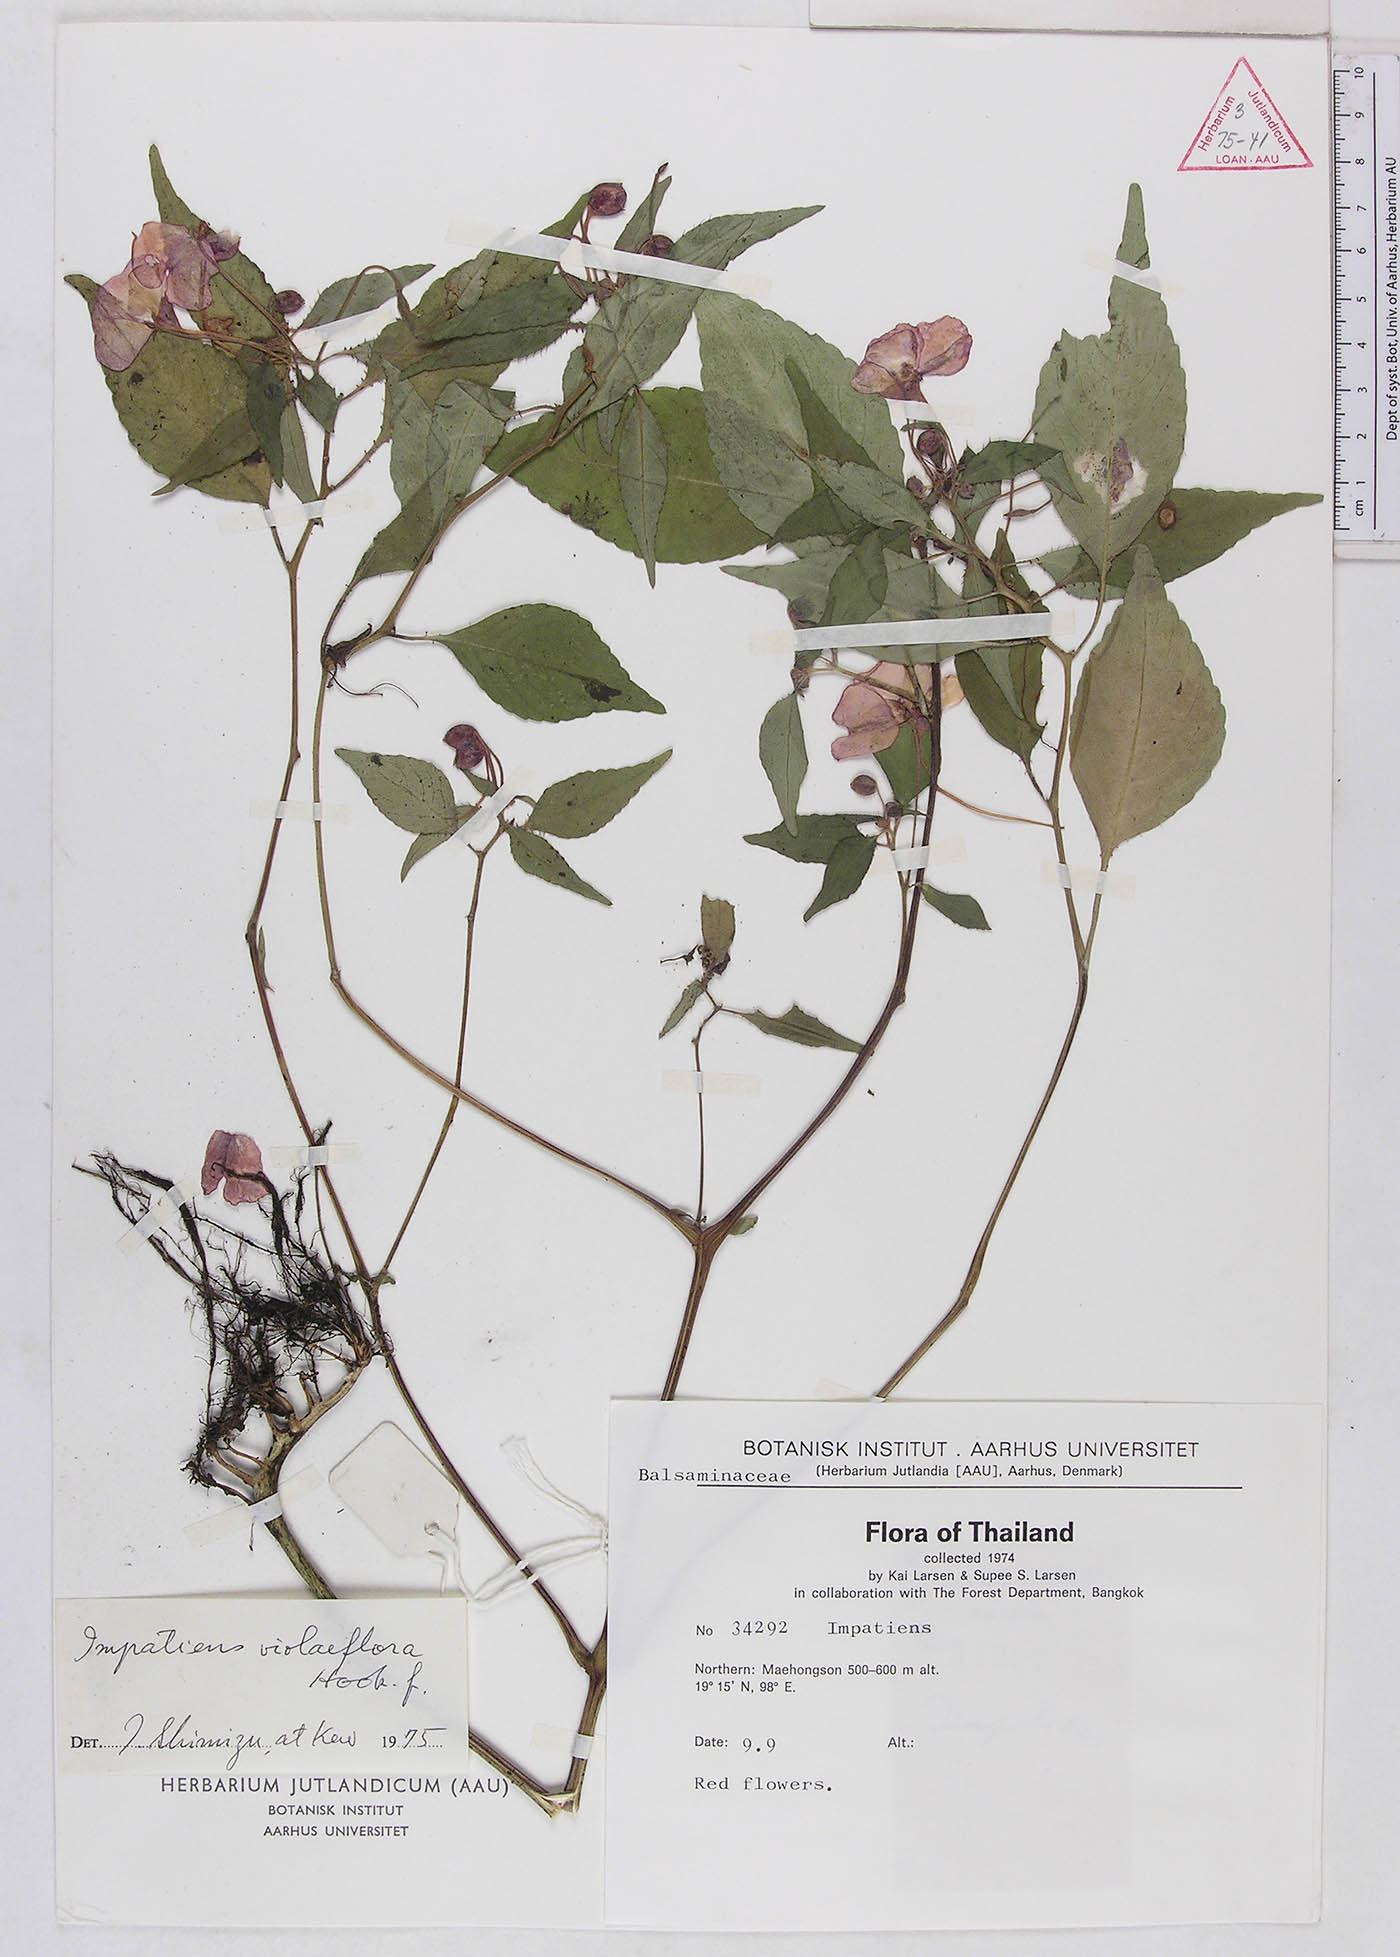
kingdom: Plantae
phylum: Tracheophyta
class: Magnoliopsida
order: Ericales
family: Balsaminaceae
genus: Impatiens
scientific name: Impatiens violiflora
